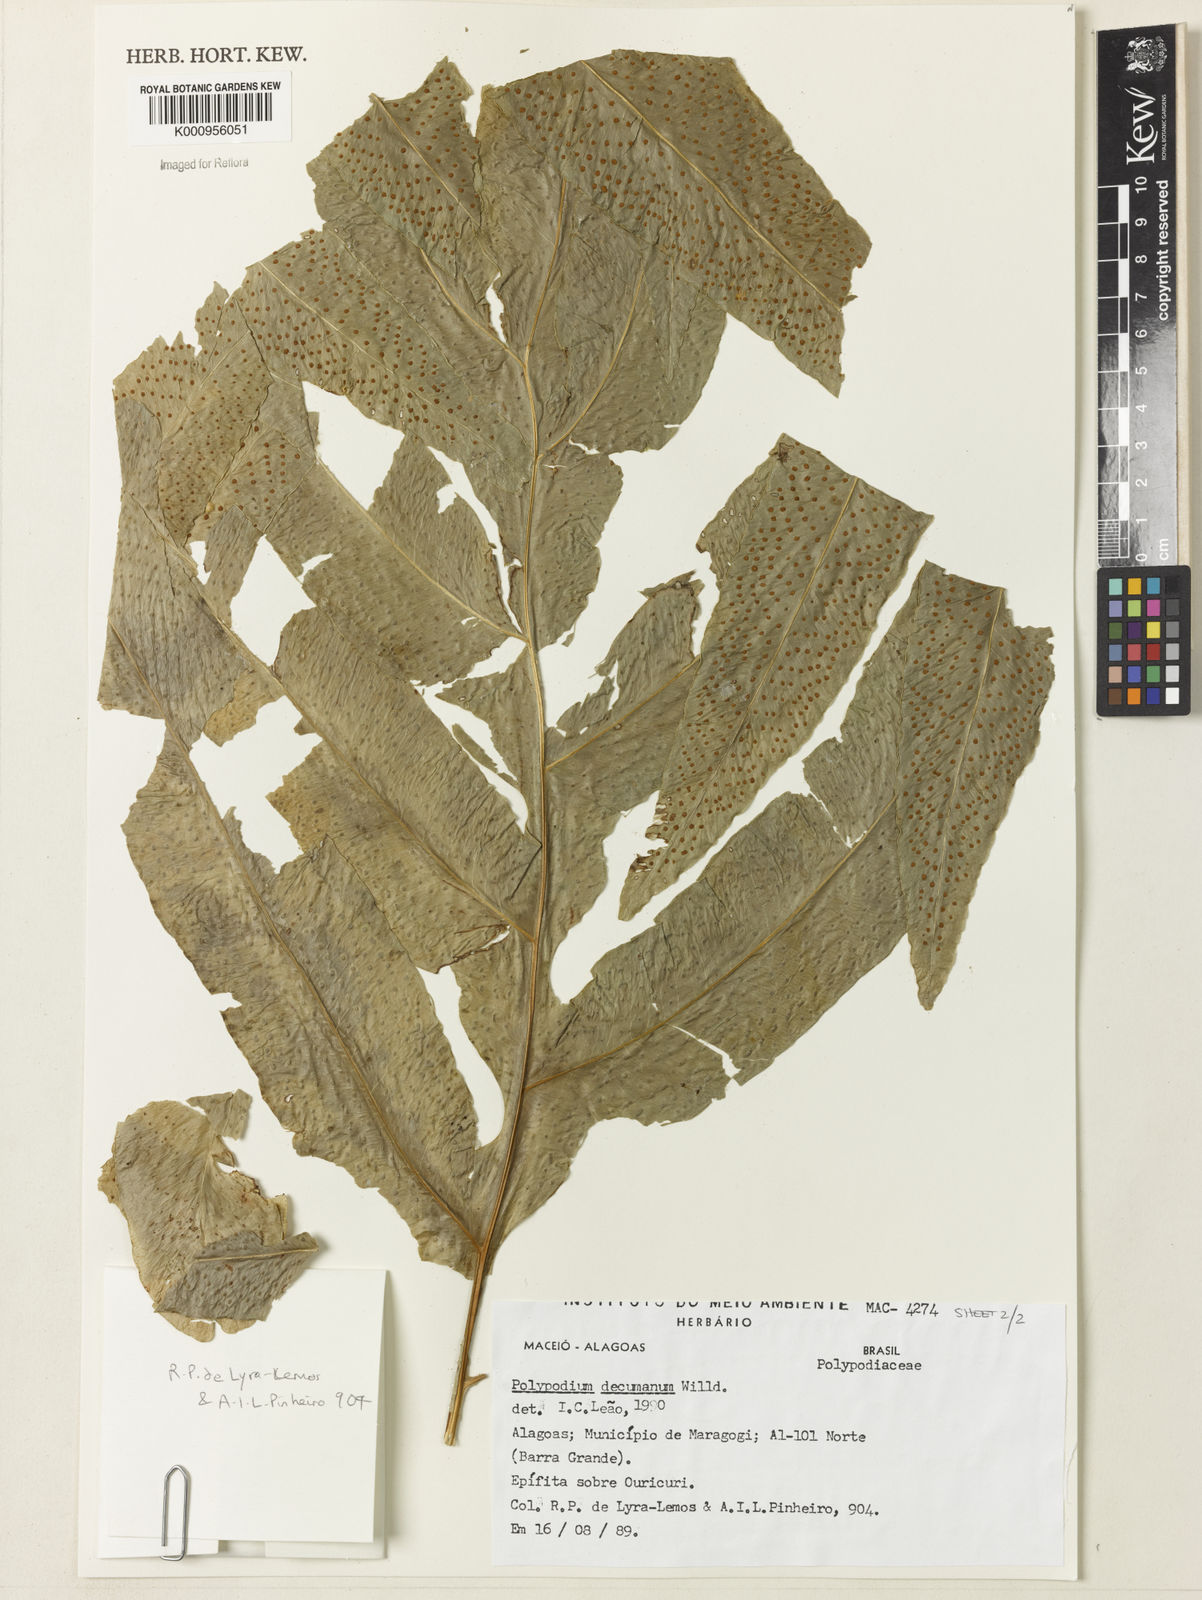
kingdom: Plantae
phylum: Tracheophyta
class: Polypodiopsida
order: Polypodiales
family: Polypodiaceae
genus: Phlebodium
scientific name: Phlebodium decumanum
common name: Golden polypod
